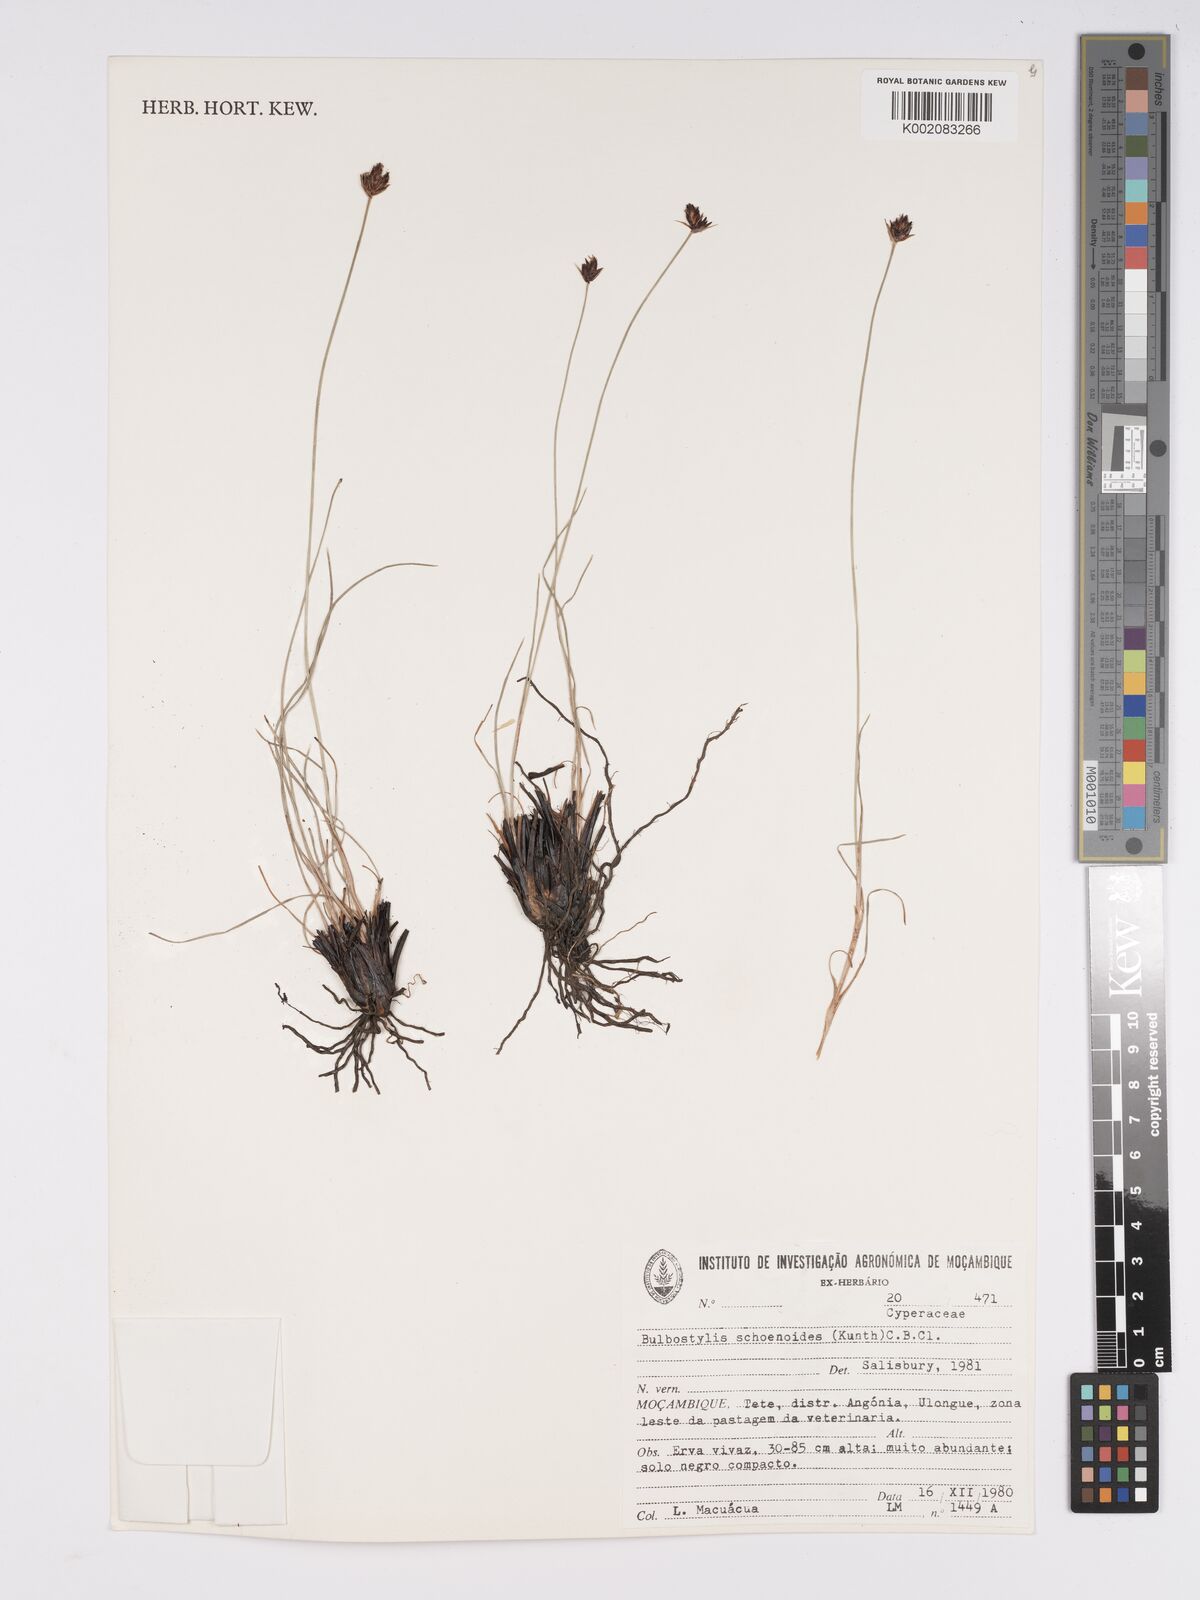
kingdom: Plantae
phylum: Tracheophyta
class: Liliopsida
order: Poales
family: Cyperaceae
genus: Bulbostylis
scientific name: Bulbostylis schoenoides
